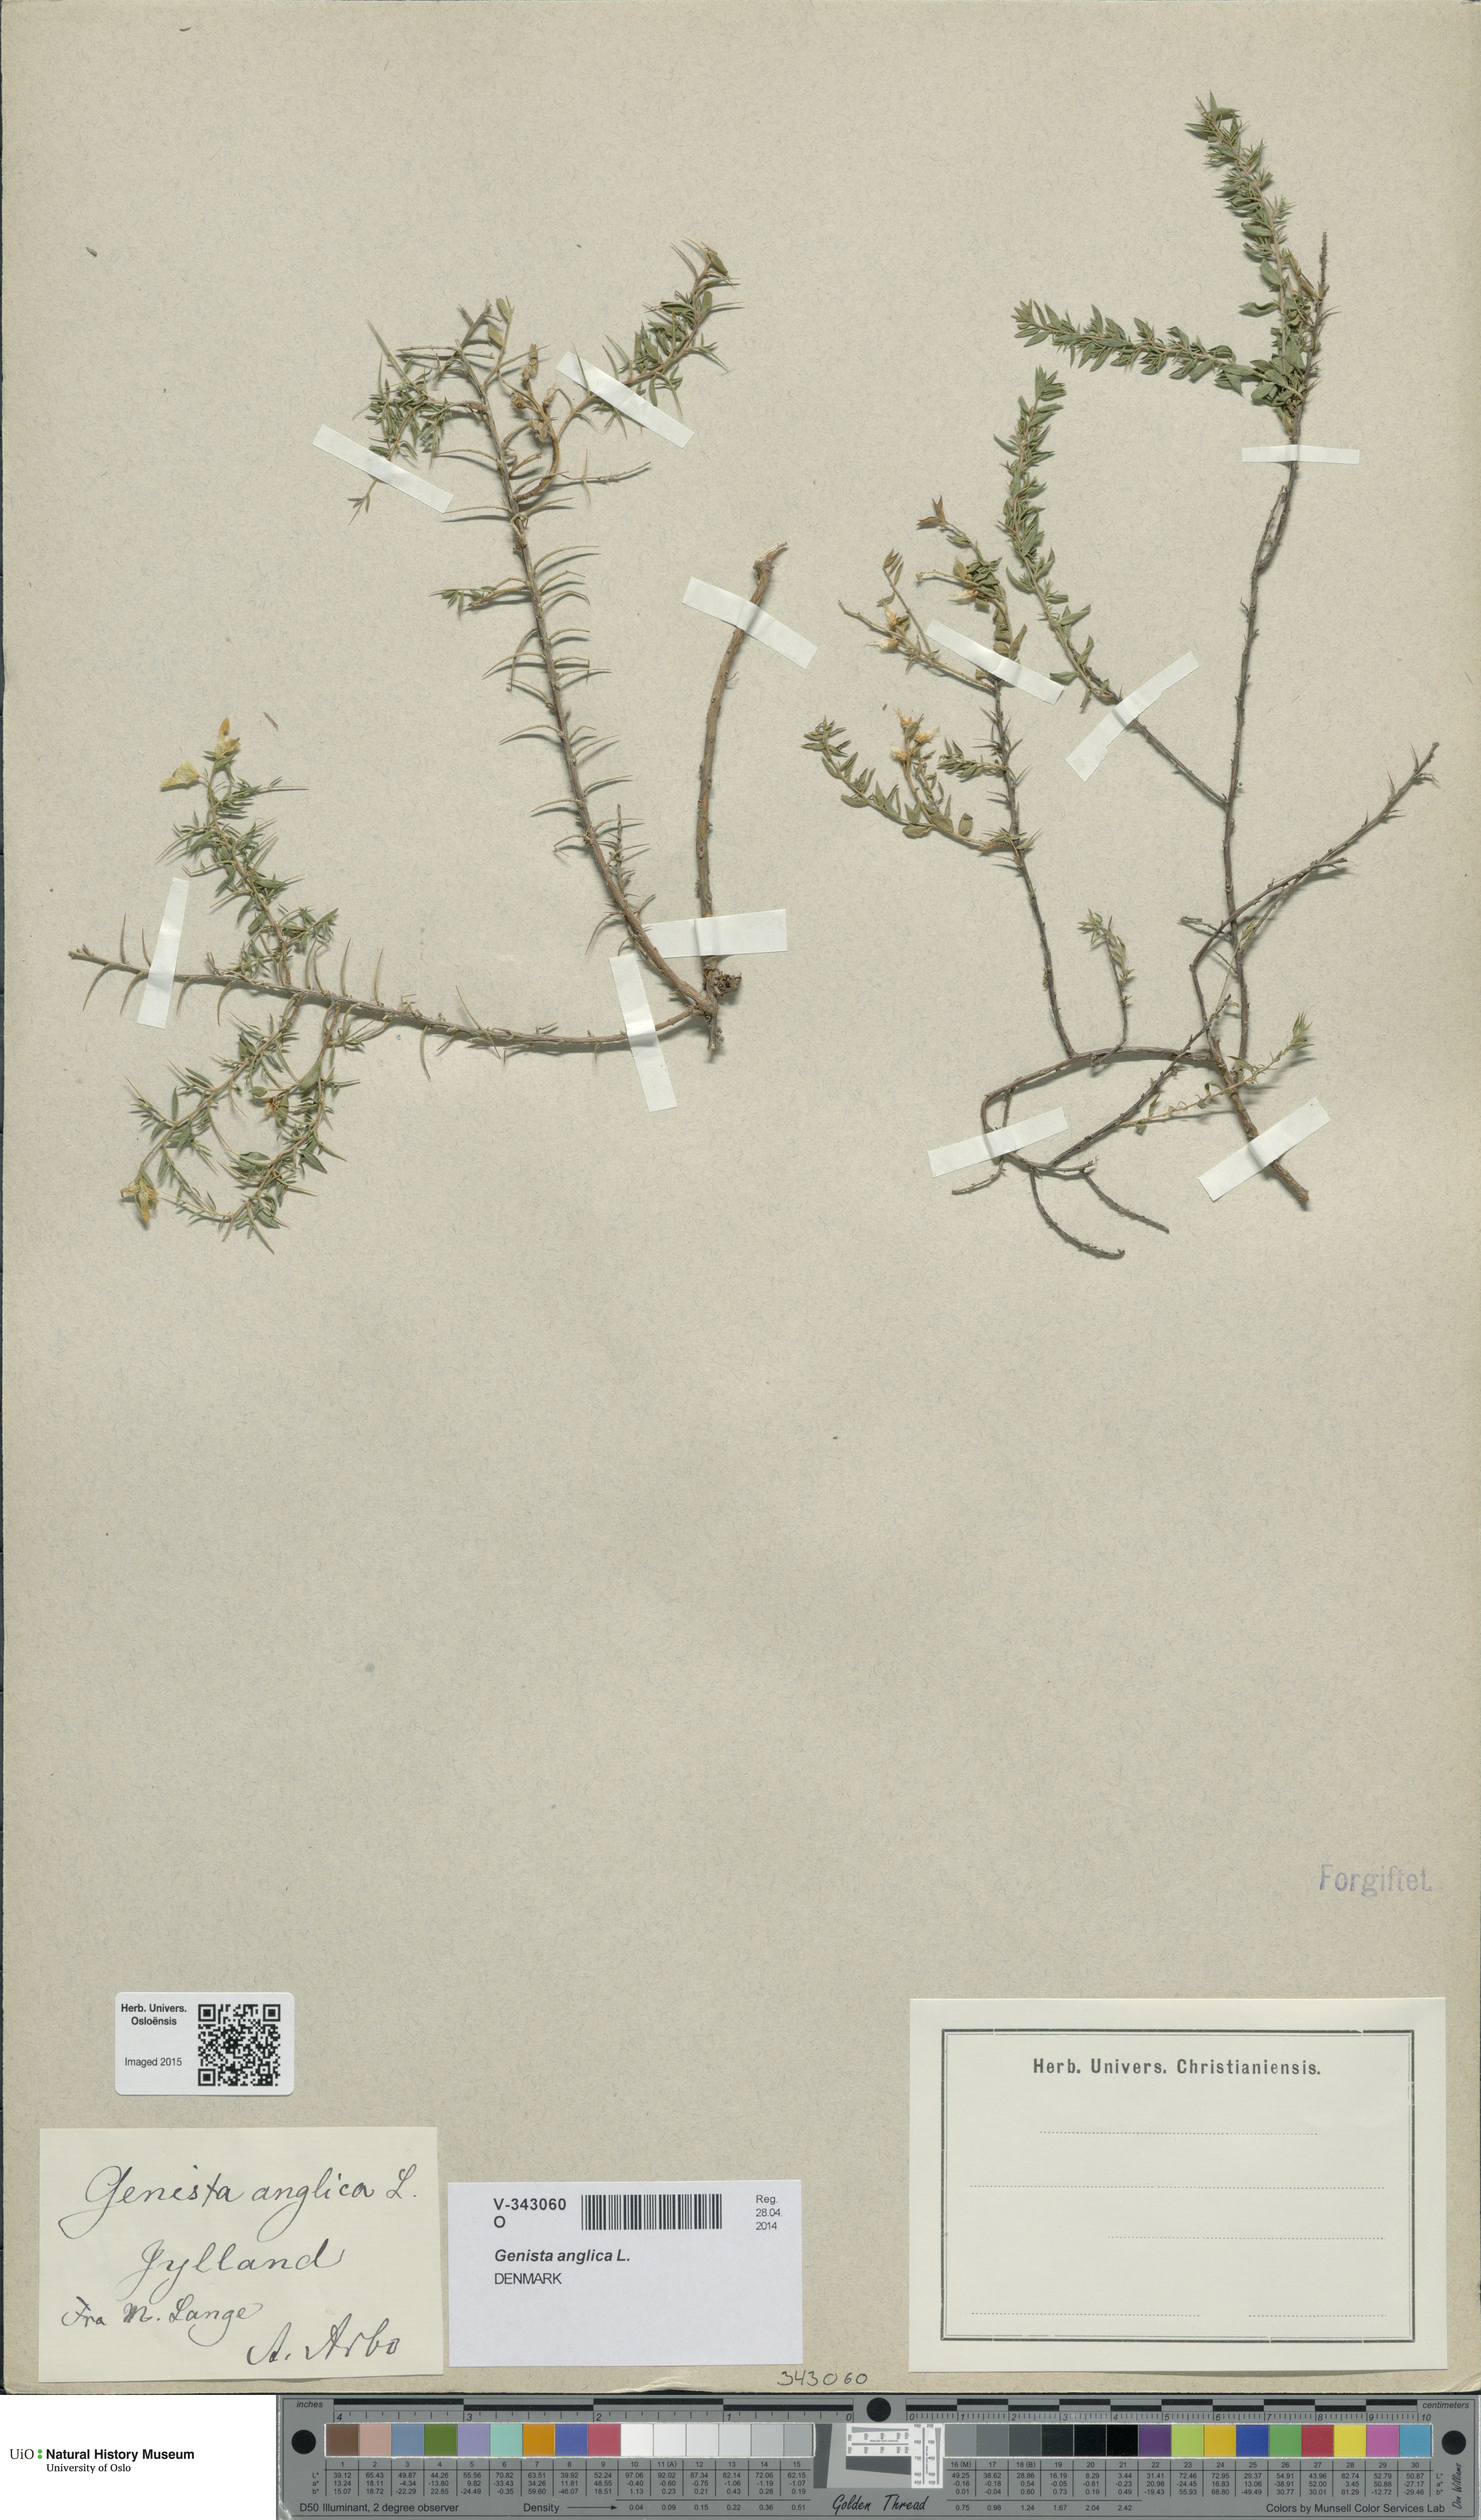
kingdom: Plantae
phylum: Tracheophyta
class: Magnoliopsida
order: Fabales
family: Fabaceae
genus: Genista
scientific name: Genista anglica
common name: Petty whin
